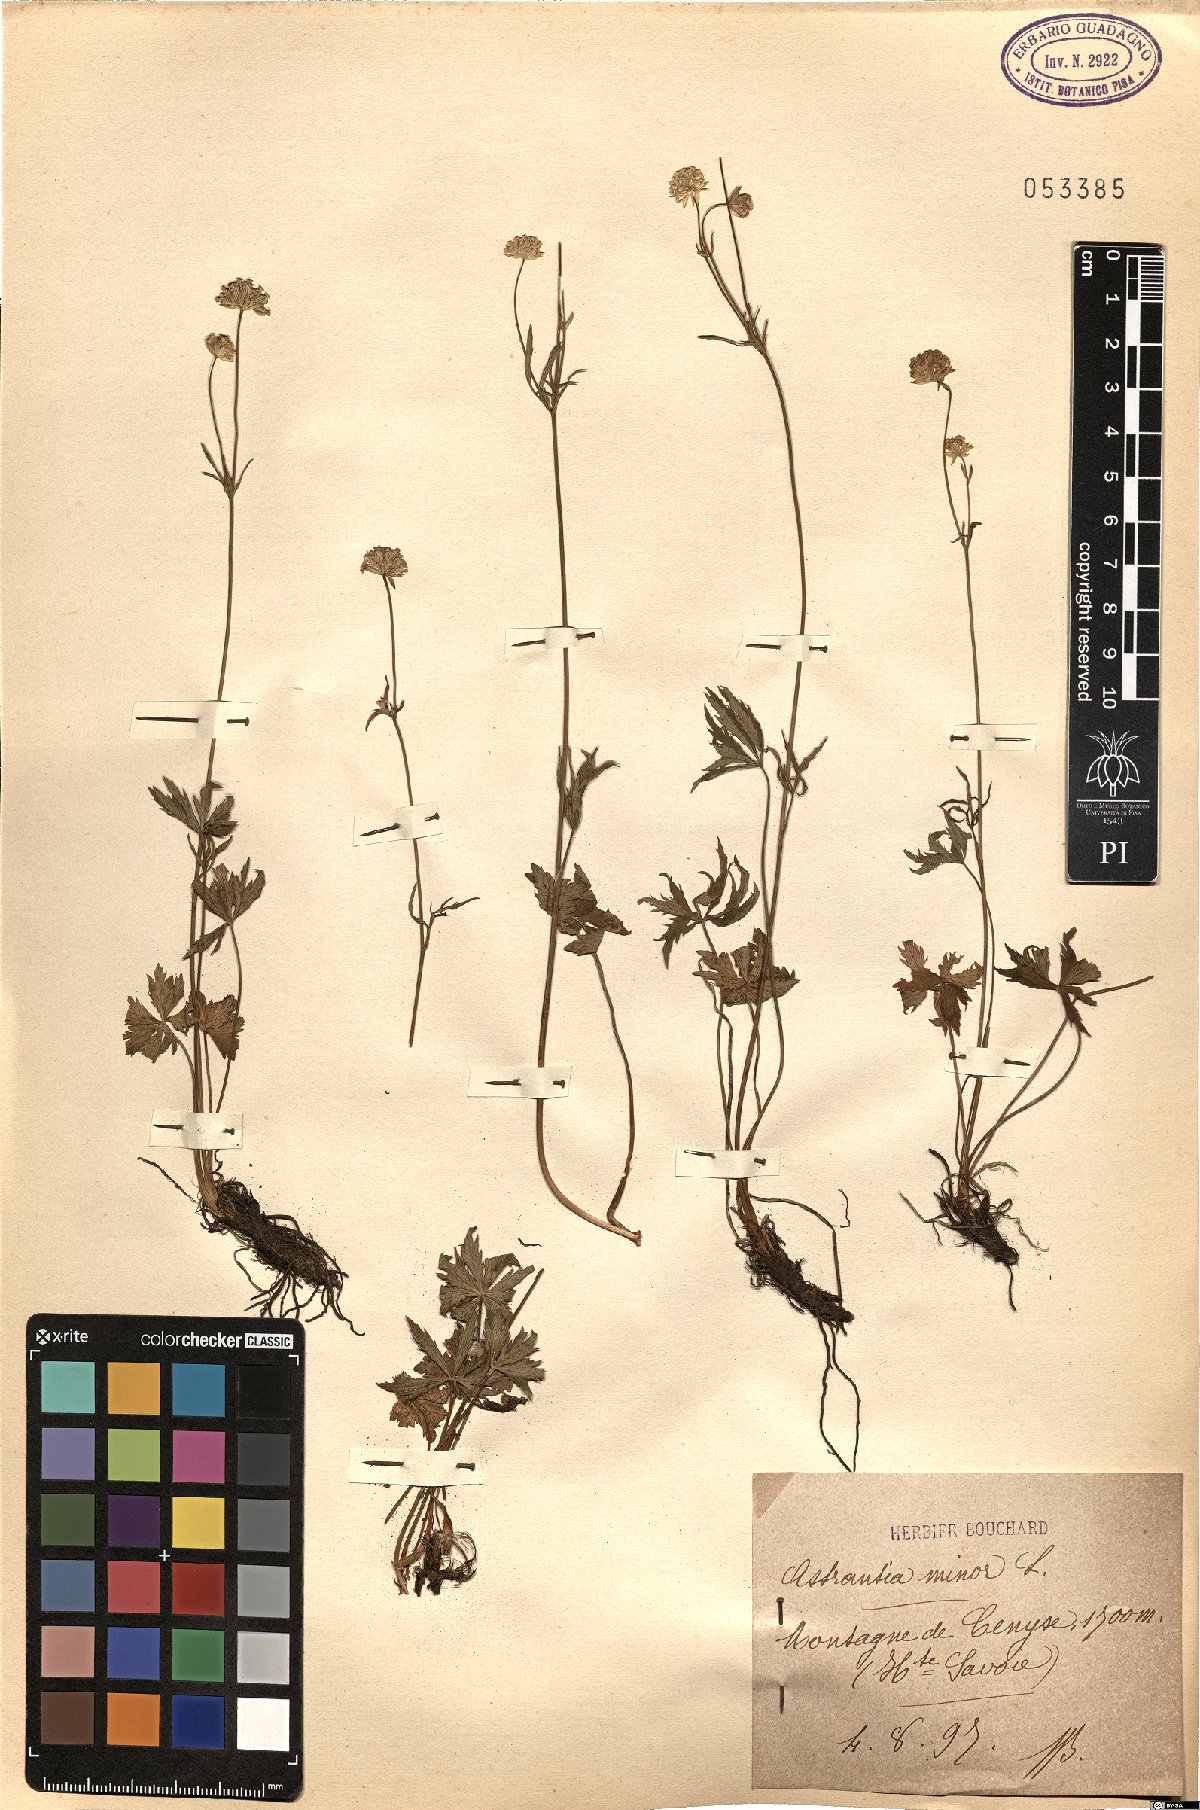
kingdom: Plantae
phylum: Tracheophyta
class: Magnoliopsida
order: Apiales
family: Apiaceae
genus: Astrantia
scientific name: Astrantia minor
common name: Lesser masterwort
